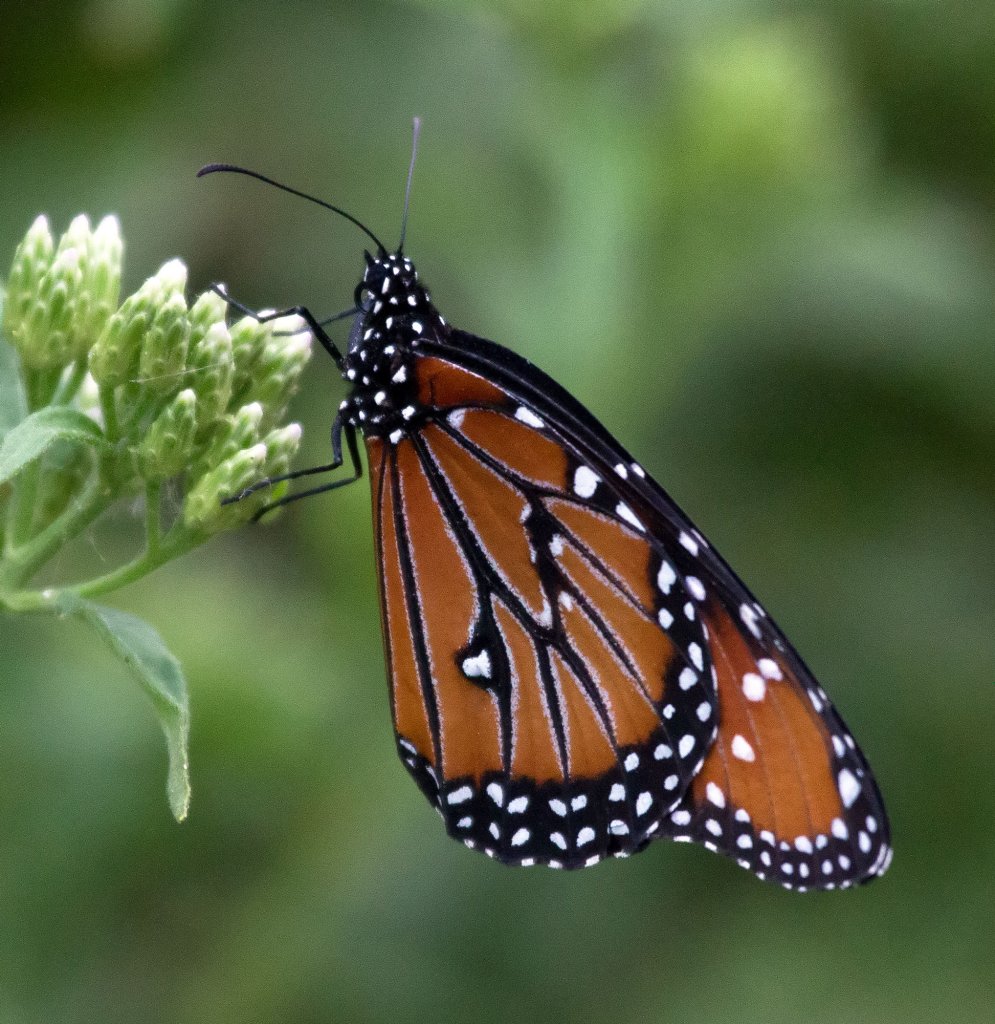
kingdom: Animalia
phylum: Arthropoda
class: Insecta
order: Lepidoptera
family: Nymphalidae
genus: Danaus
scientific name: Danaus gilippus
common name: Queen
